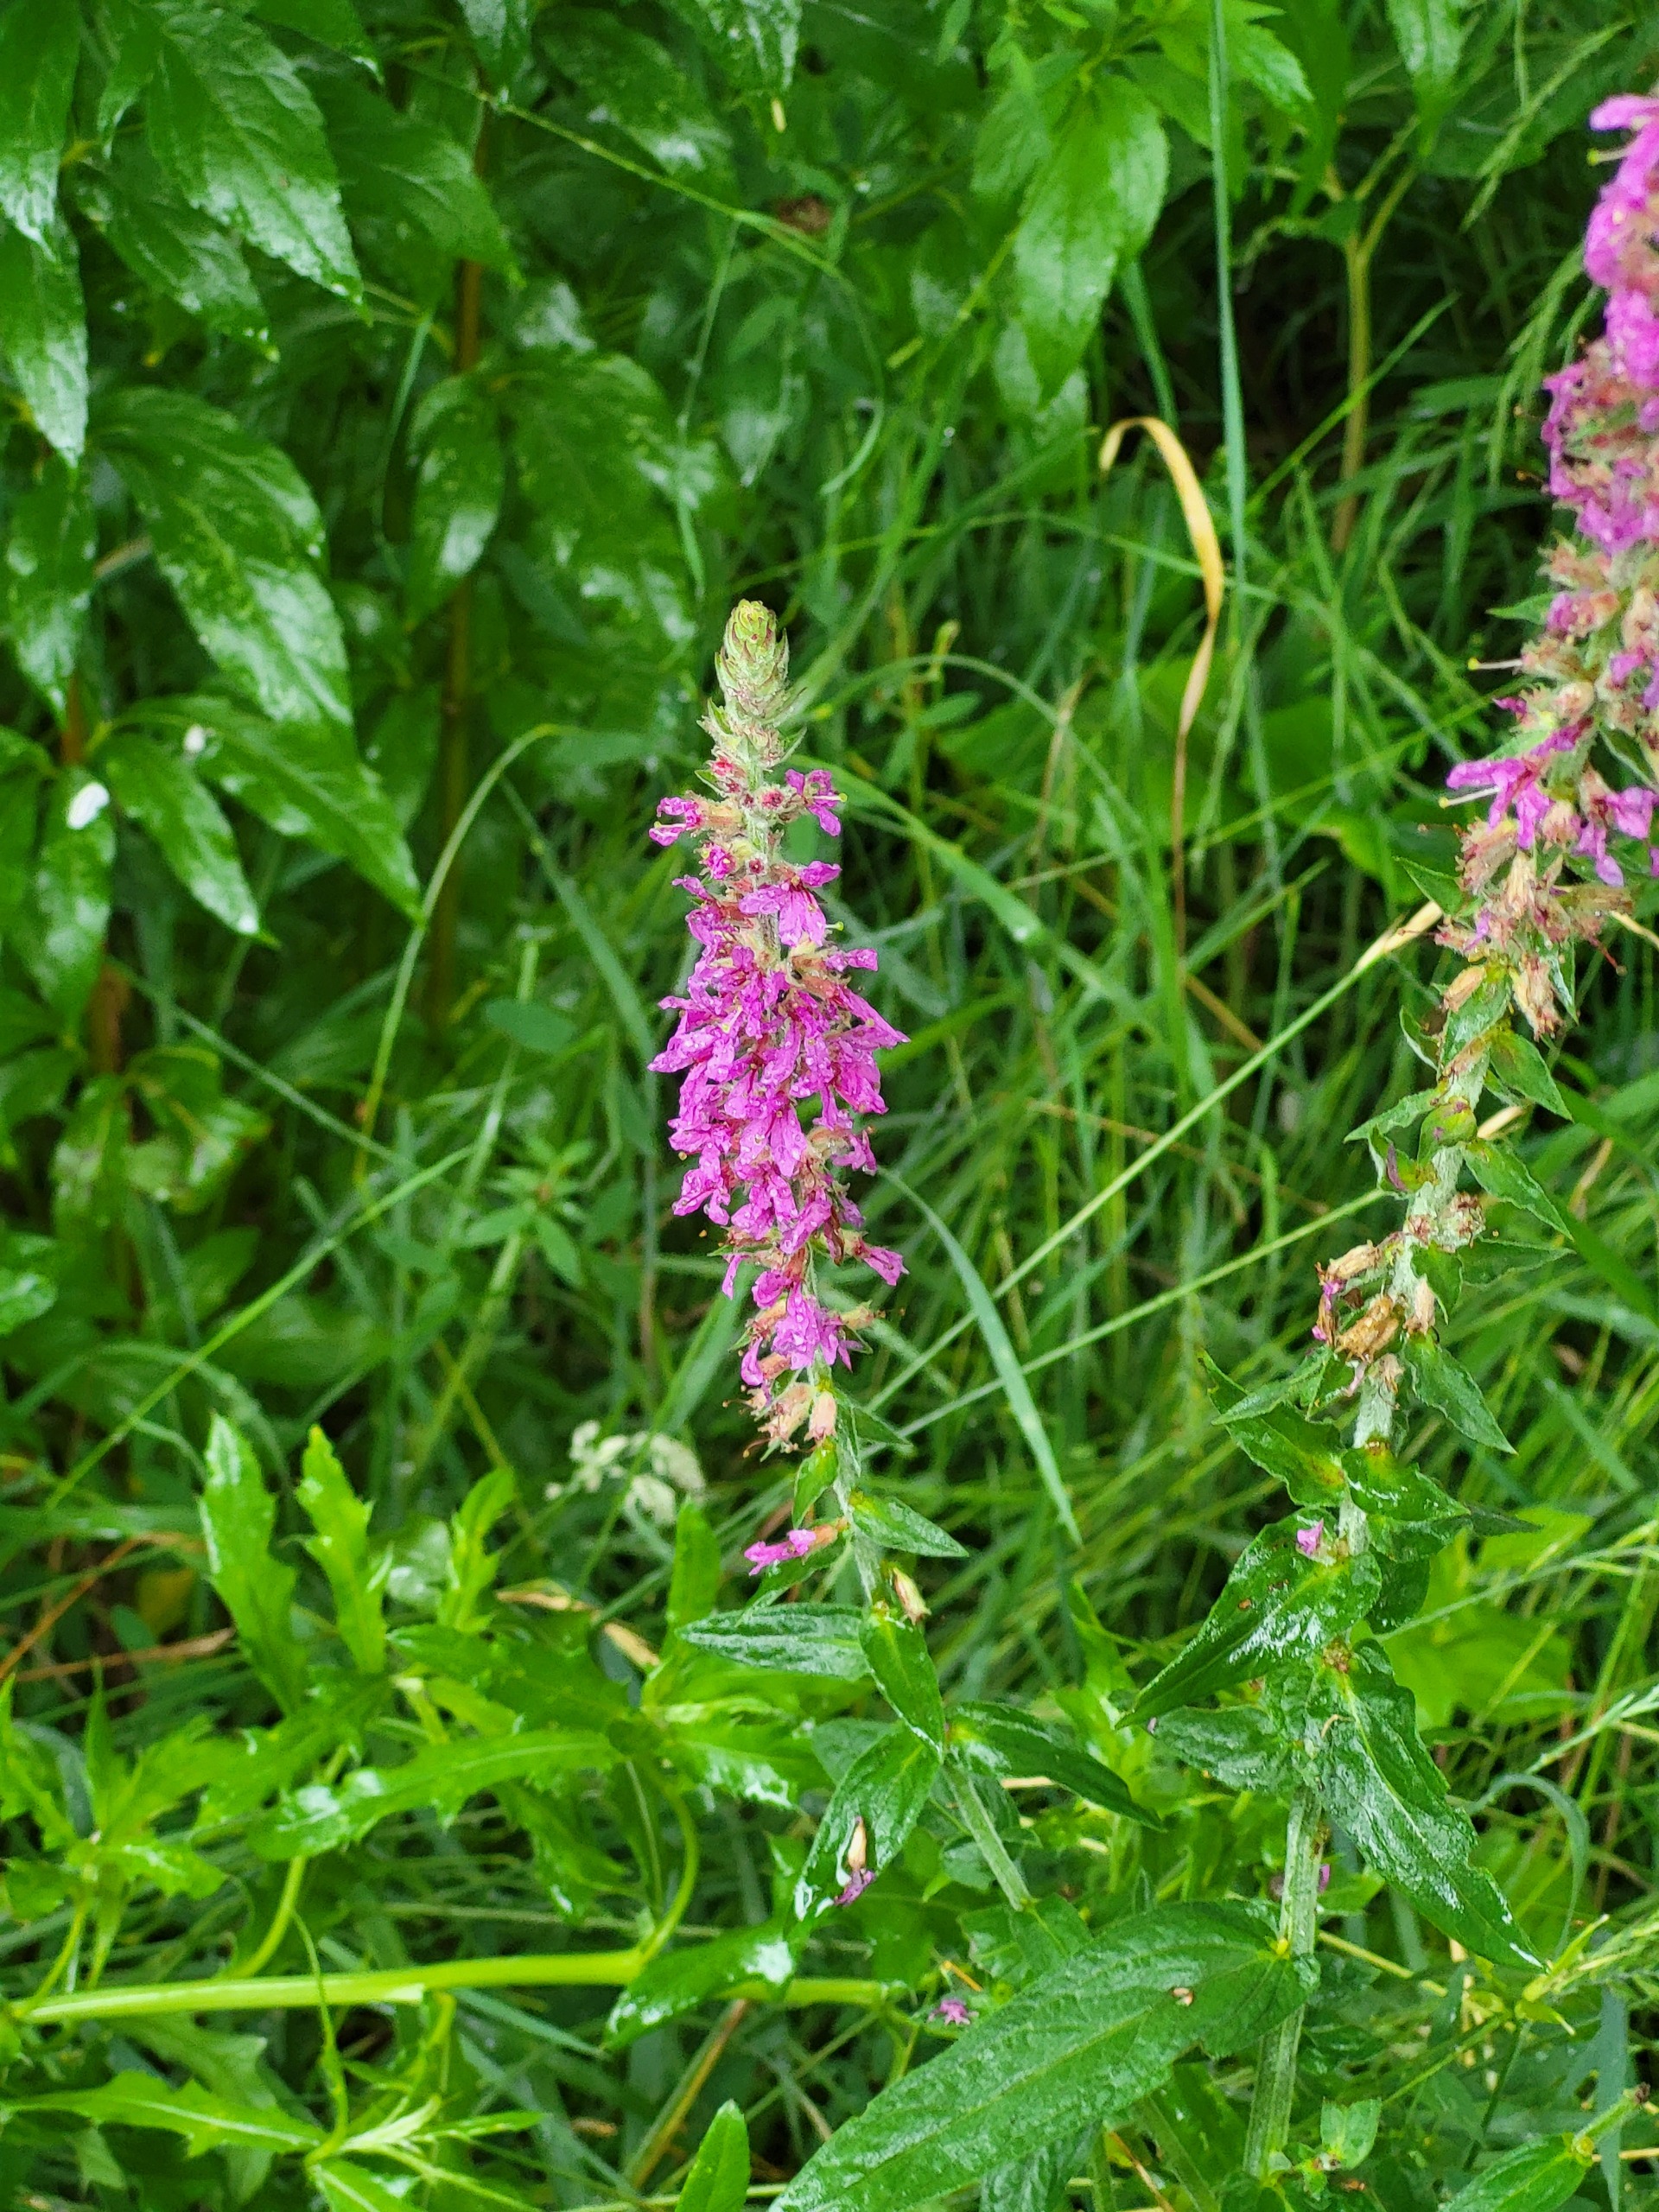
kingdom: Plantae
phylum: Tracheophyta
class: Magnoliopsida
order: Myrtales
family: Lythraceae
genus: Lythrum
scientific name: Lythrum salicaria
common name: Kattehale
